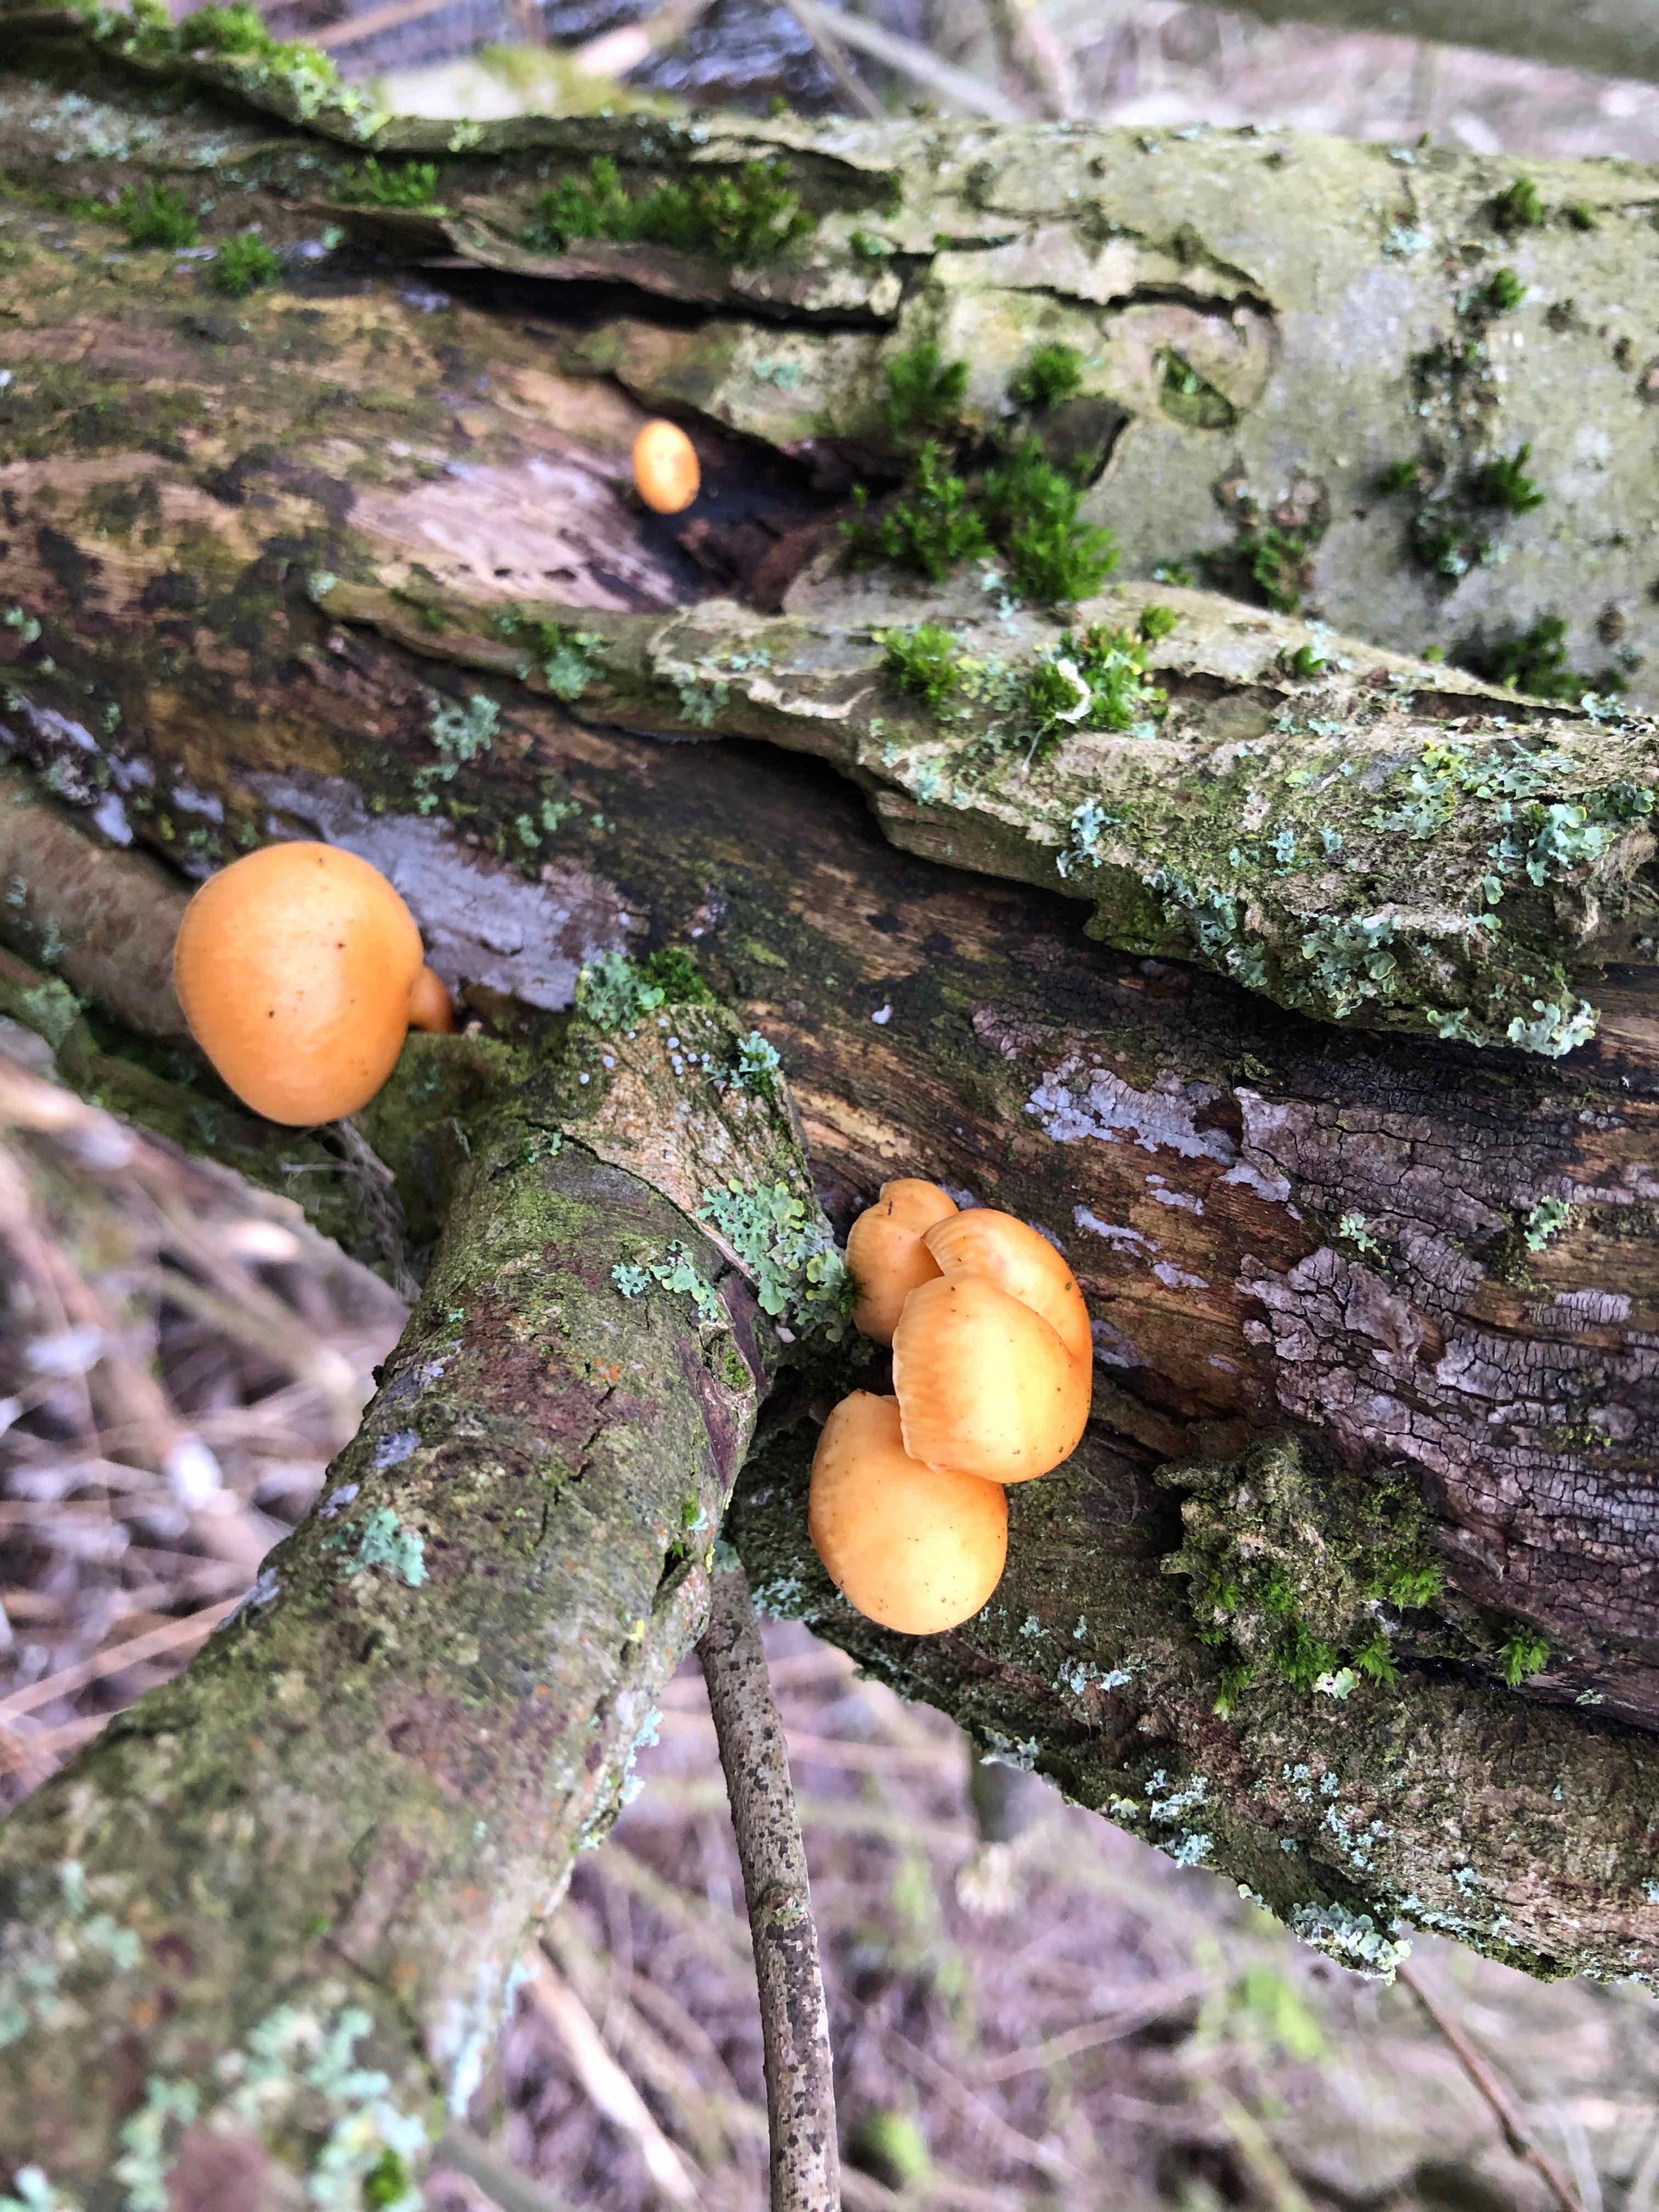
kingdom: Fungi
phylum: Basidiomycota
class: Agaricomycetes
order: Agaricales
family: Physalacriaceae
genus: Flammulina
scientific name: Flammulina velutipes
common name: gul fløjlsfod
